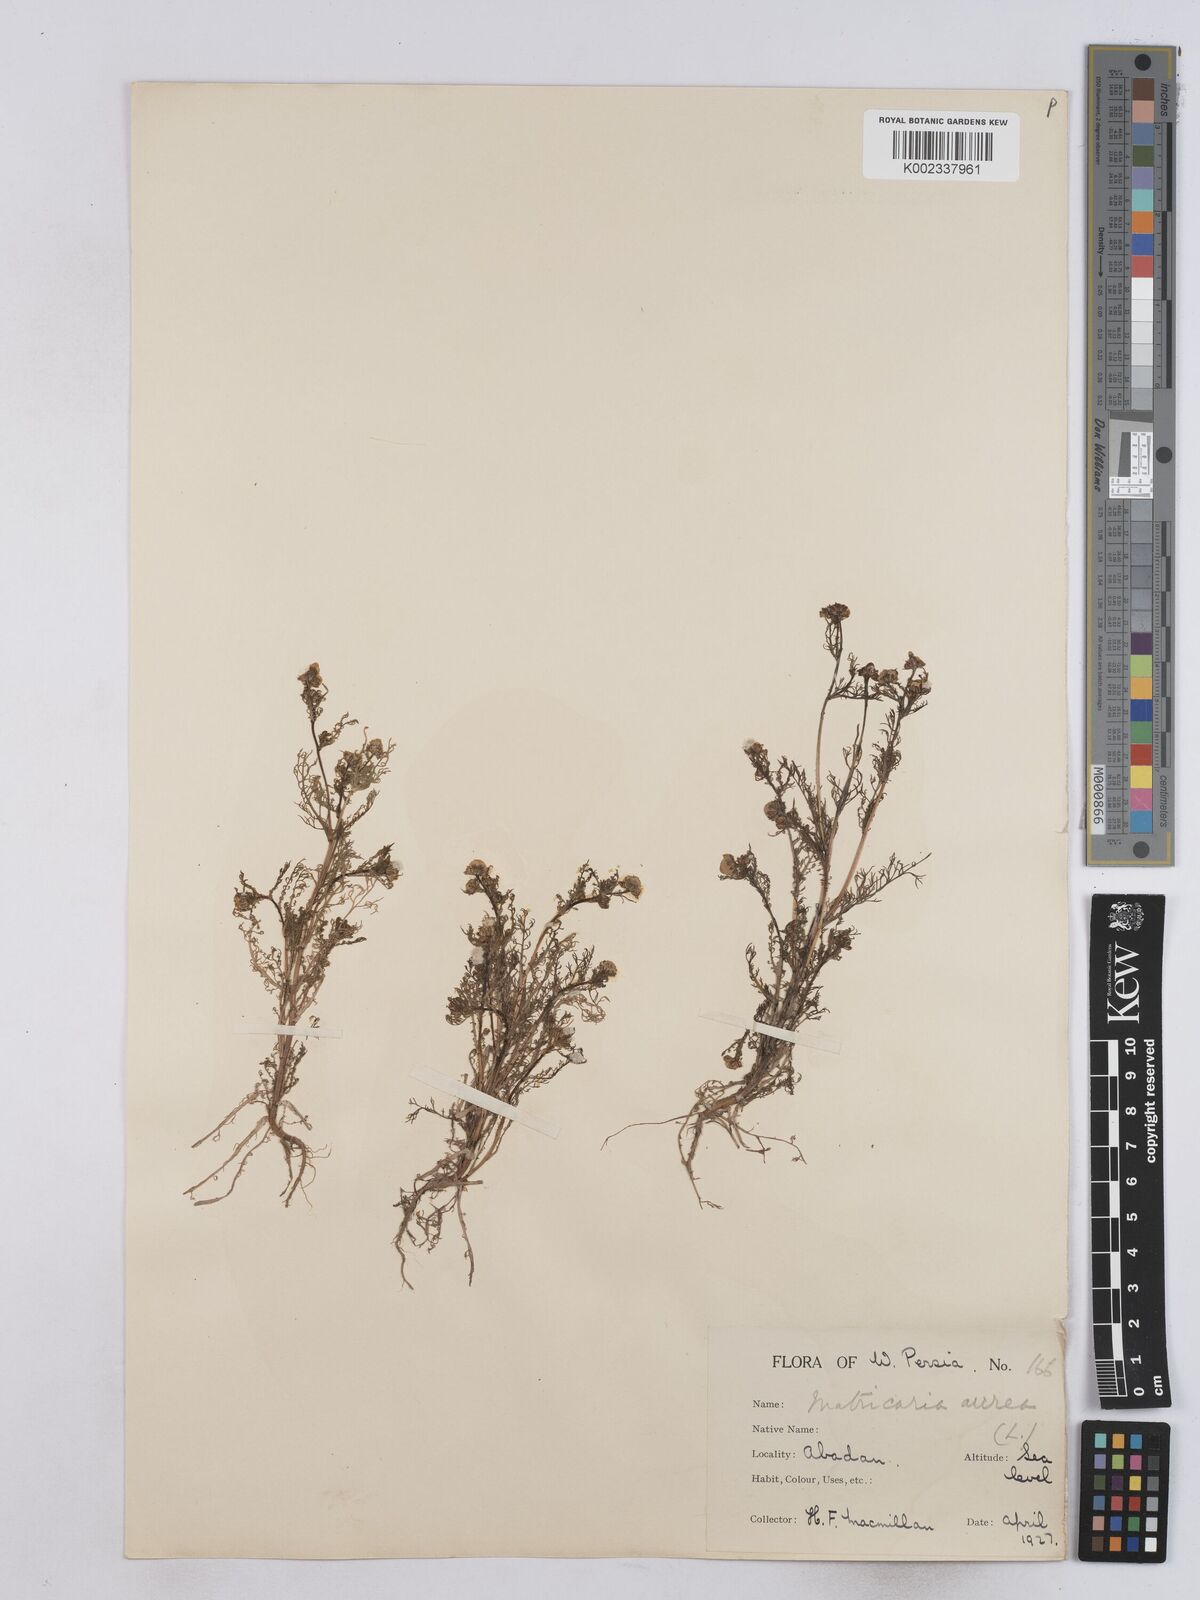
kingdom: Plantae
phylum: Tracheophyta
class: Magnoliopsida
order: Asterales
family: Asteraceae
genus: Matricaria
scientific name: Matricaria aurea
